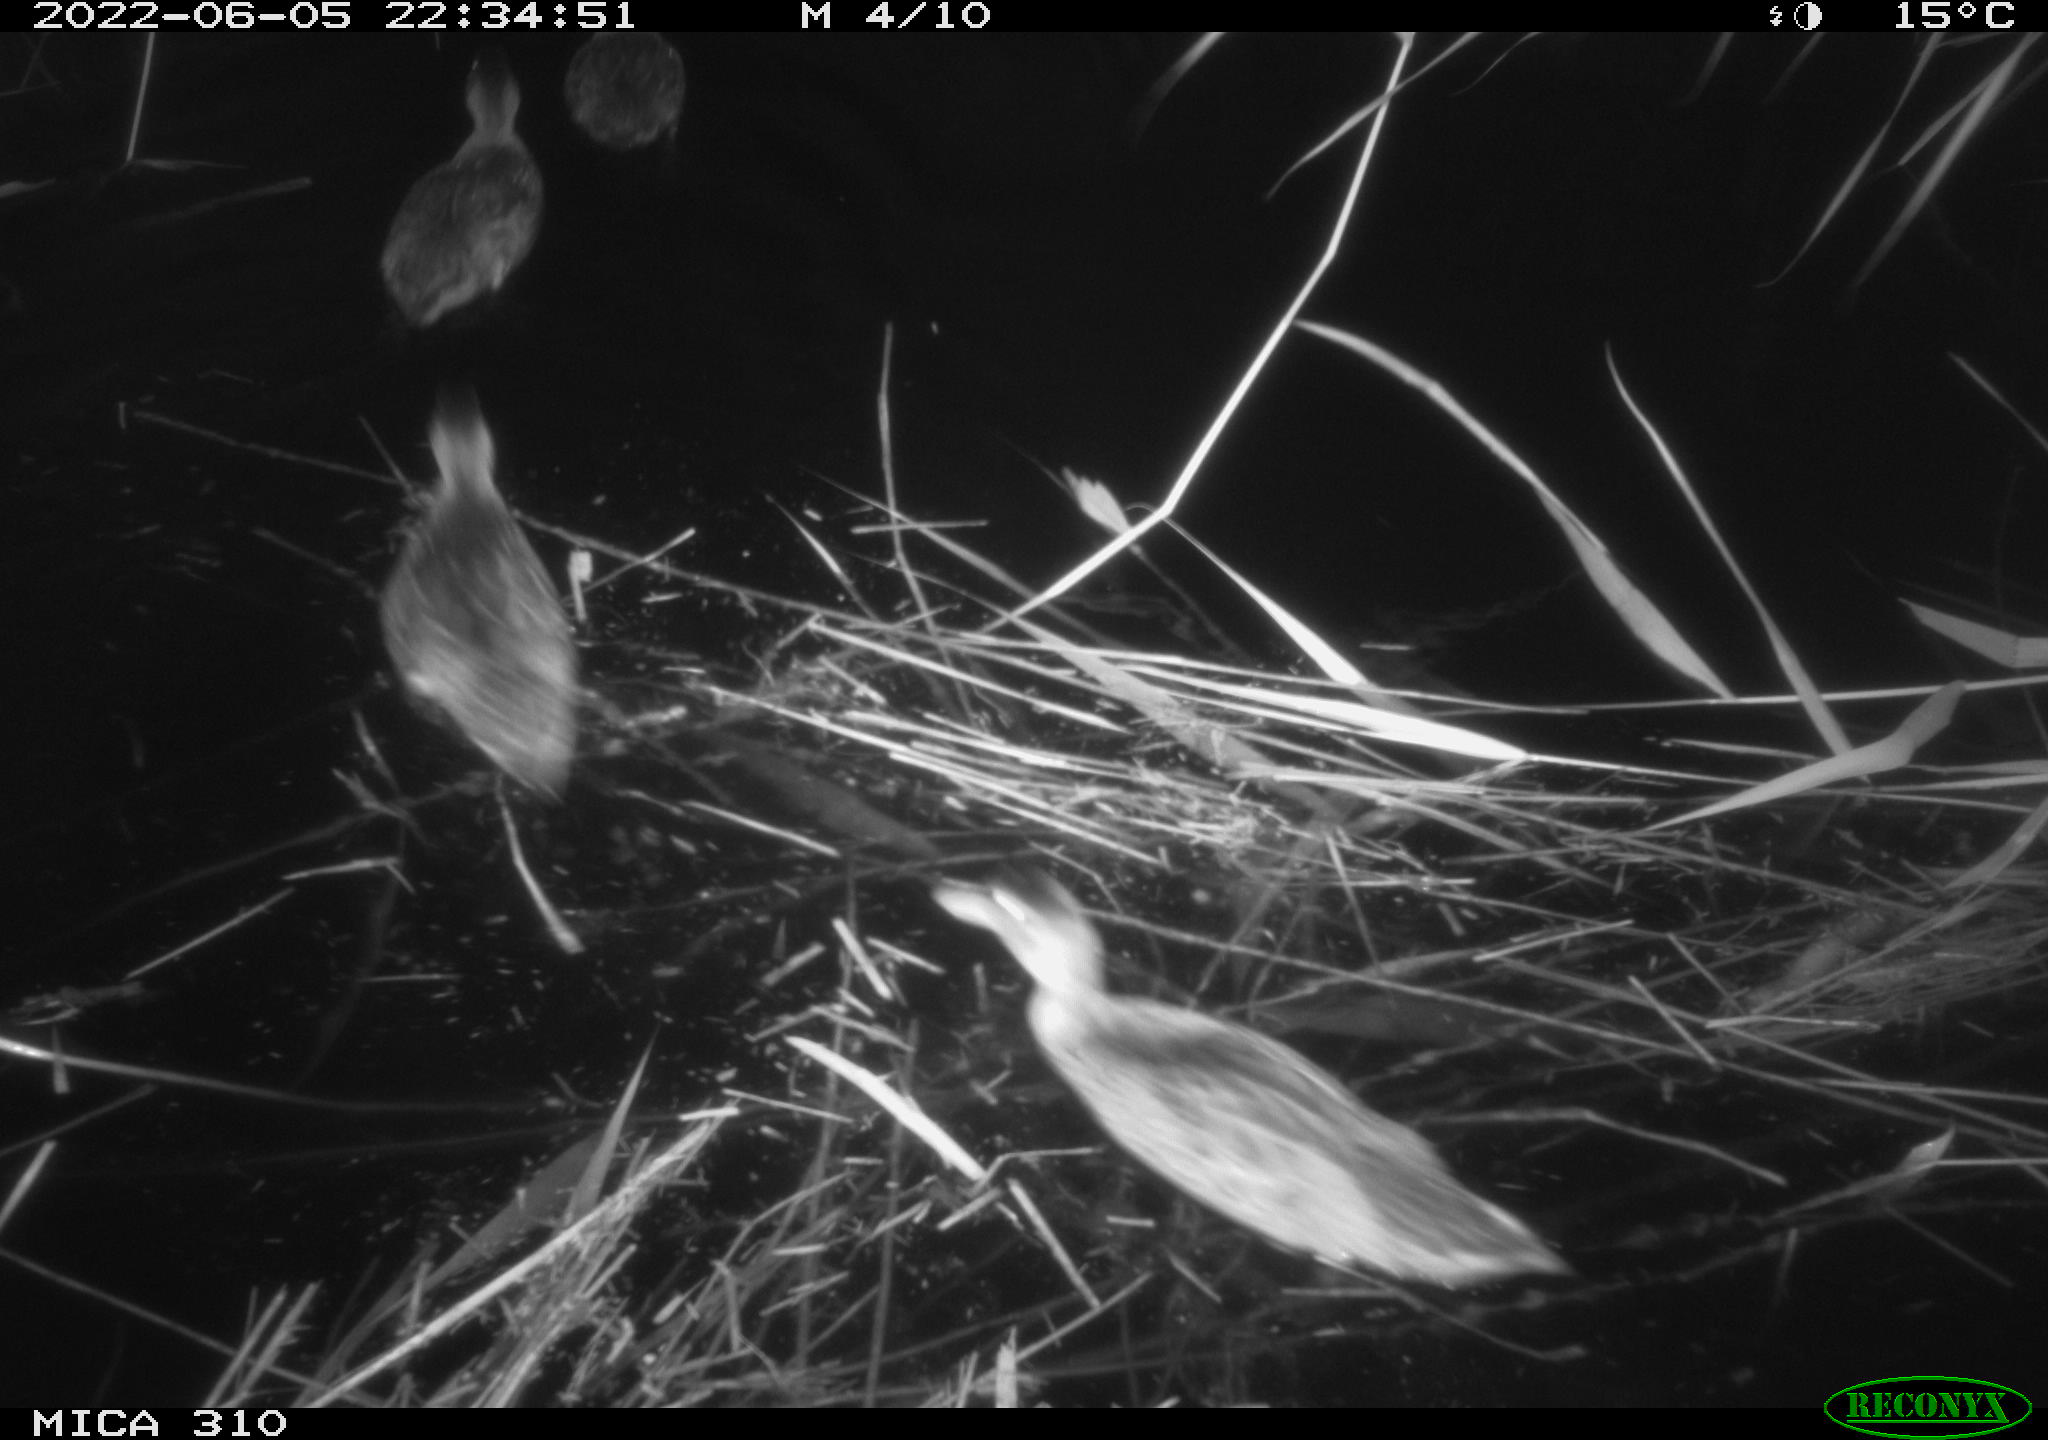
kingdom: Animalia
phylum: Chordata
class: Aves
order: Pelecaniformes
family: Ardeidae
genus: Ardea
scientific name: Ardea
